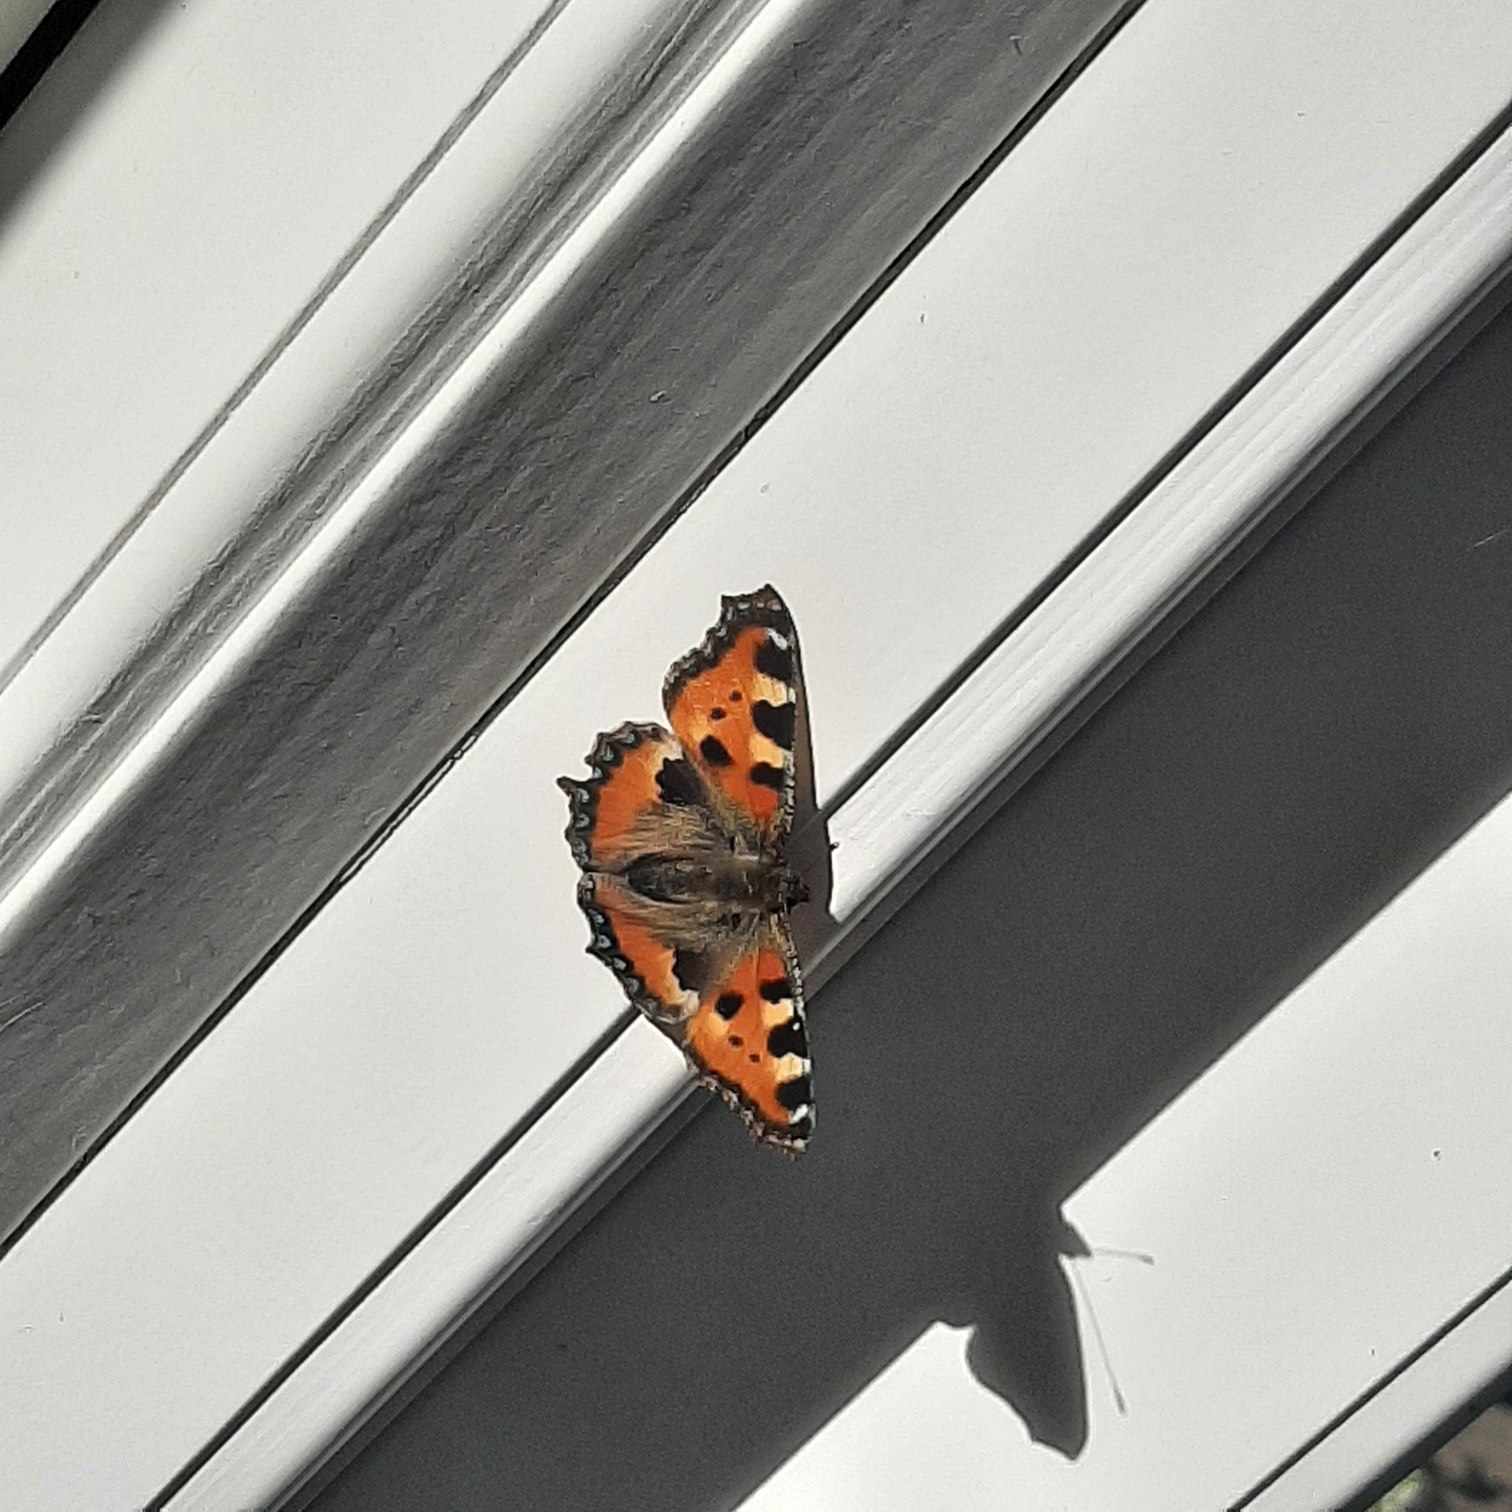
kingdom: Animalia
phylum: Arthropoda
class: Insecta
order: Lepidoptera
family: Nymphalidae
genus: Aglais
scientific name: Aglais urticae
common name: Nældens takvinge
